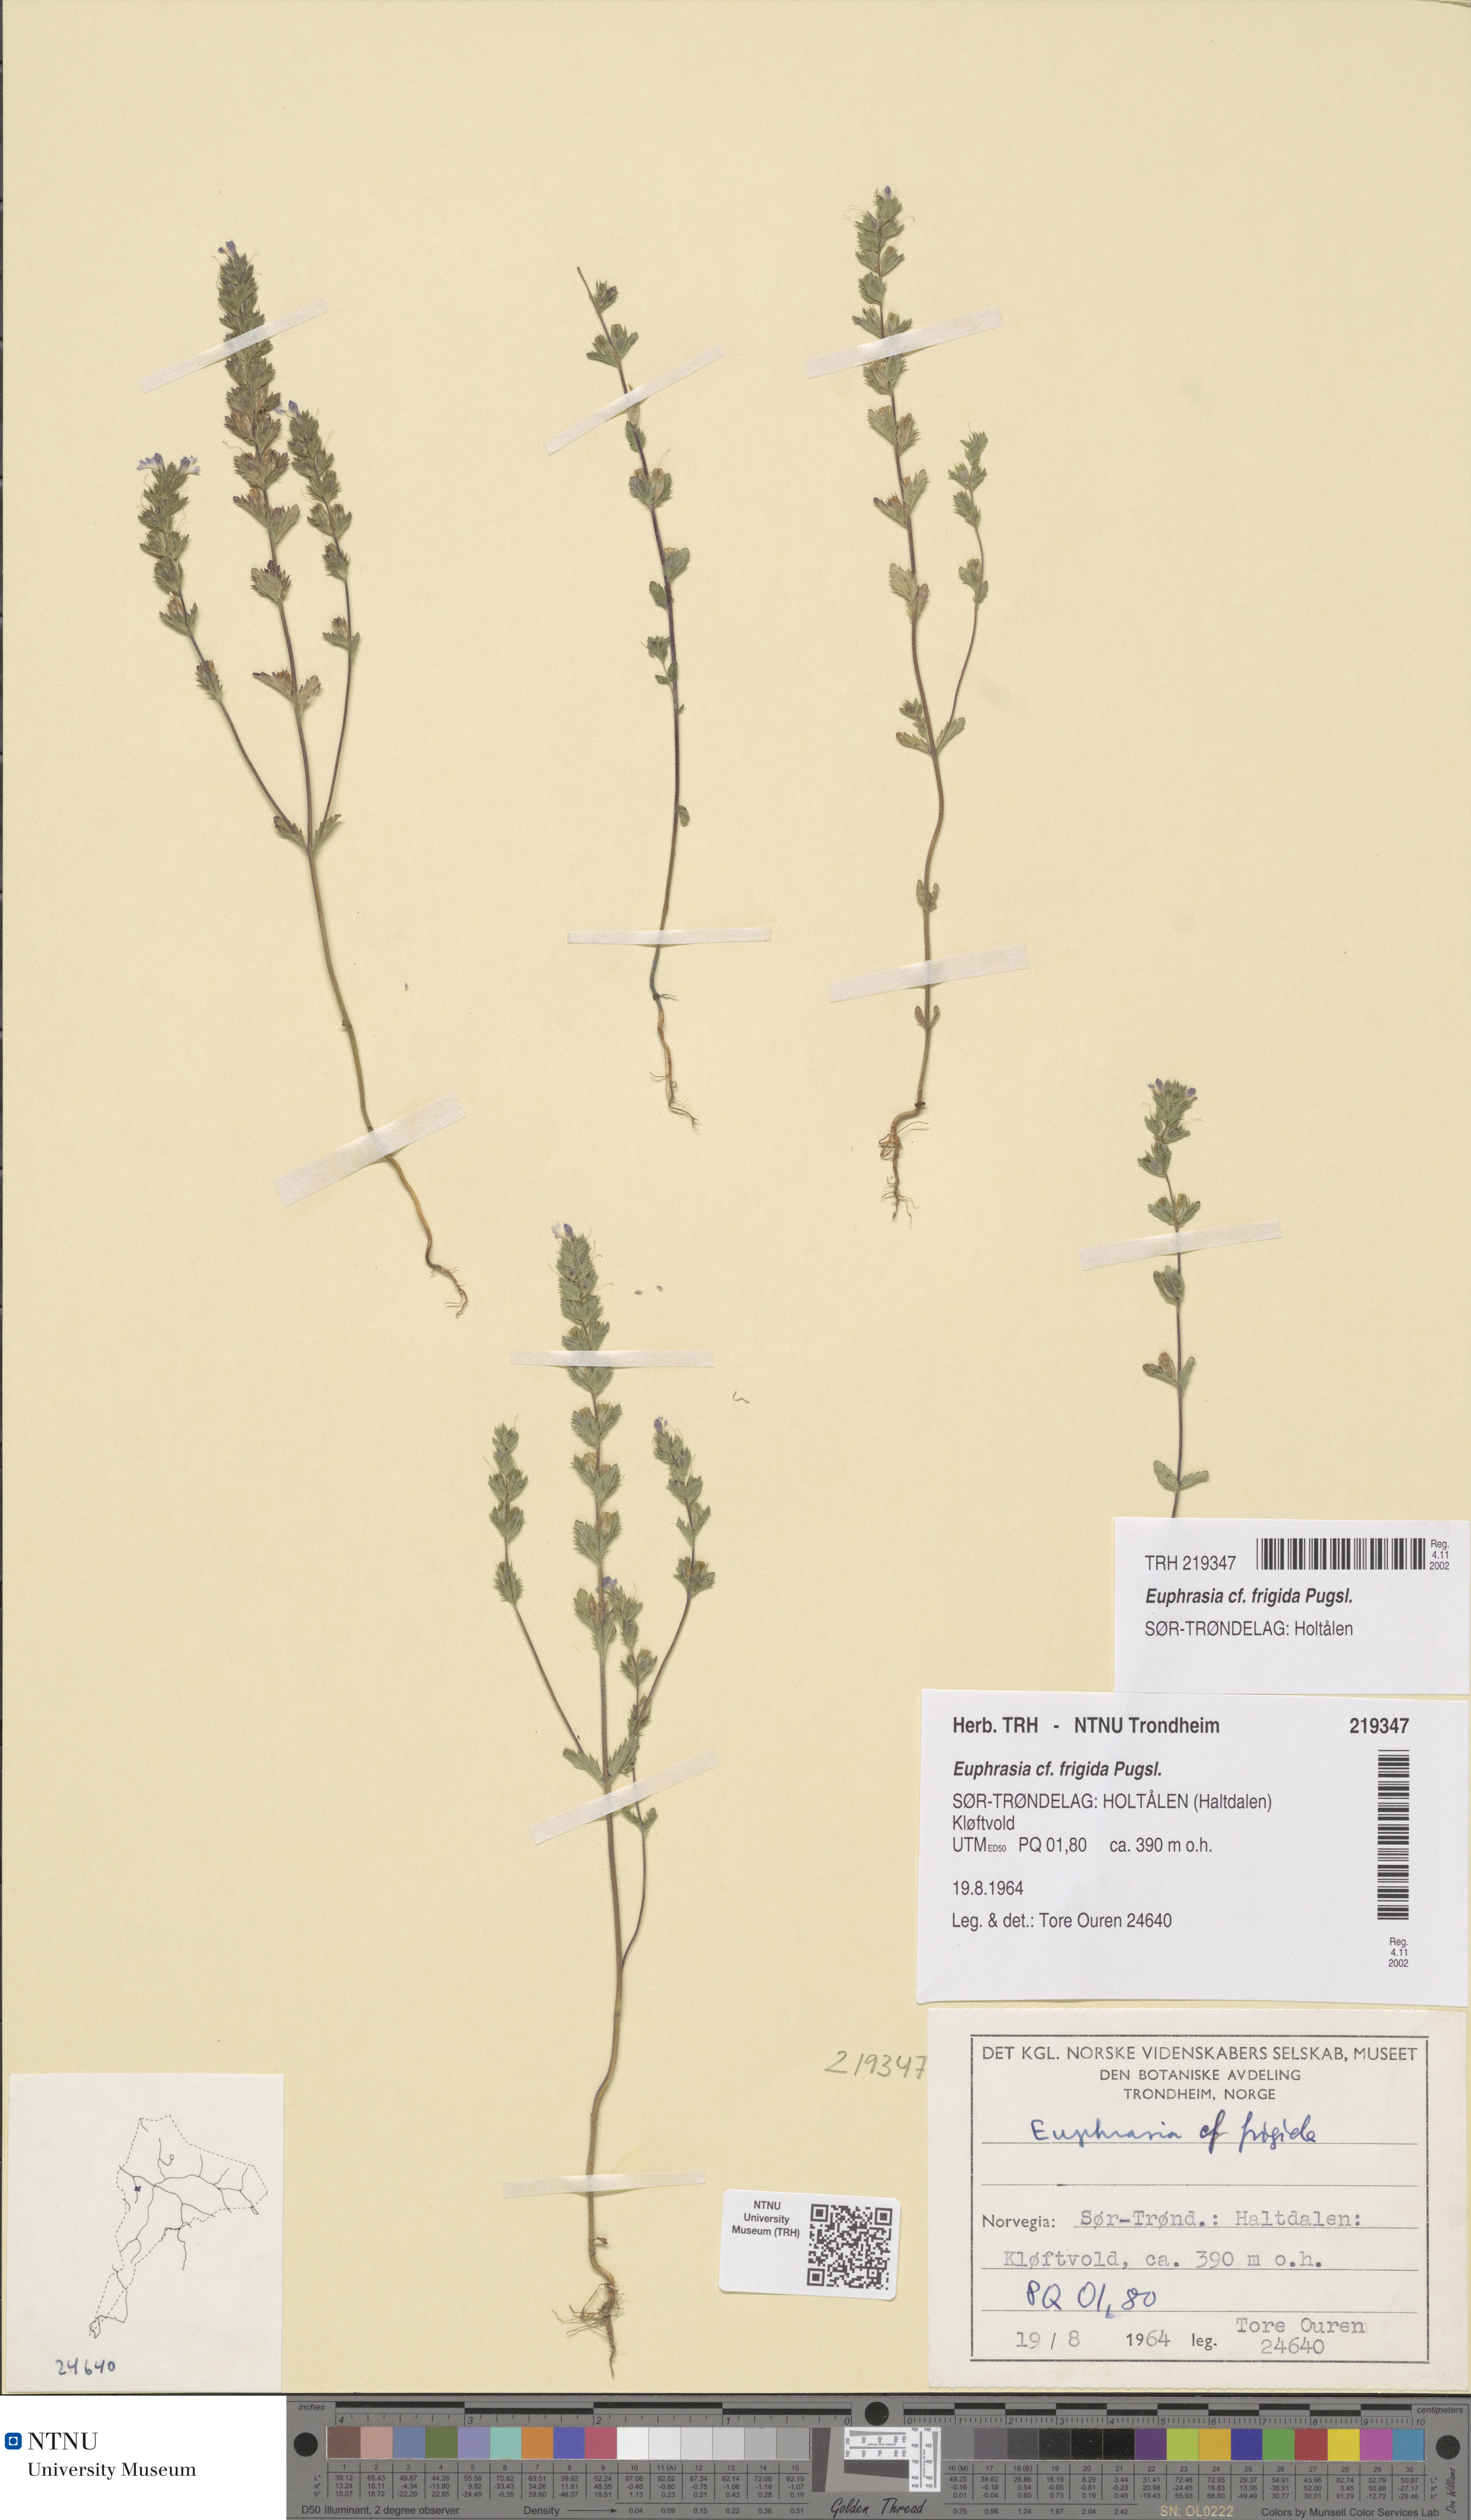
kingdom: Plantae
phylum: Tracheophyta
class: Magnoliopsida
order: Lamiales
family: Orobanchaceae
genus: Euphrasia
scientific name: Euphrasia wettsteinii
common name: Wettstein's eyebright
